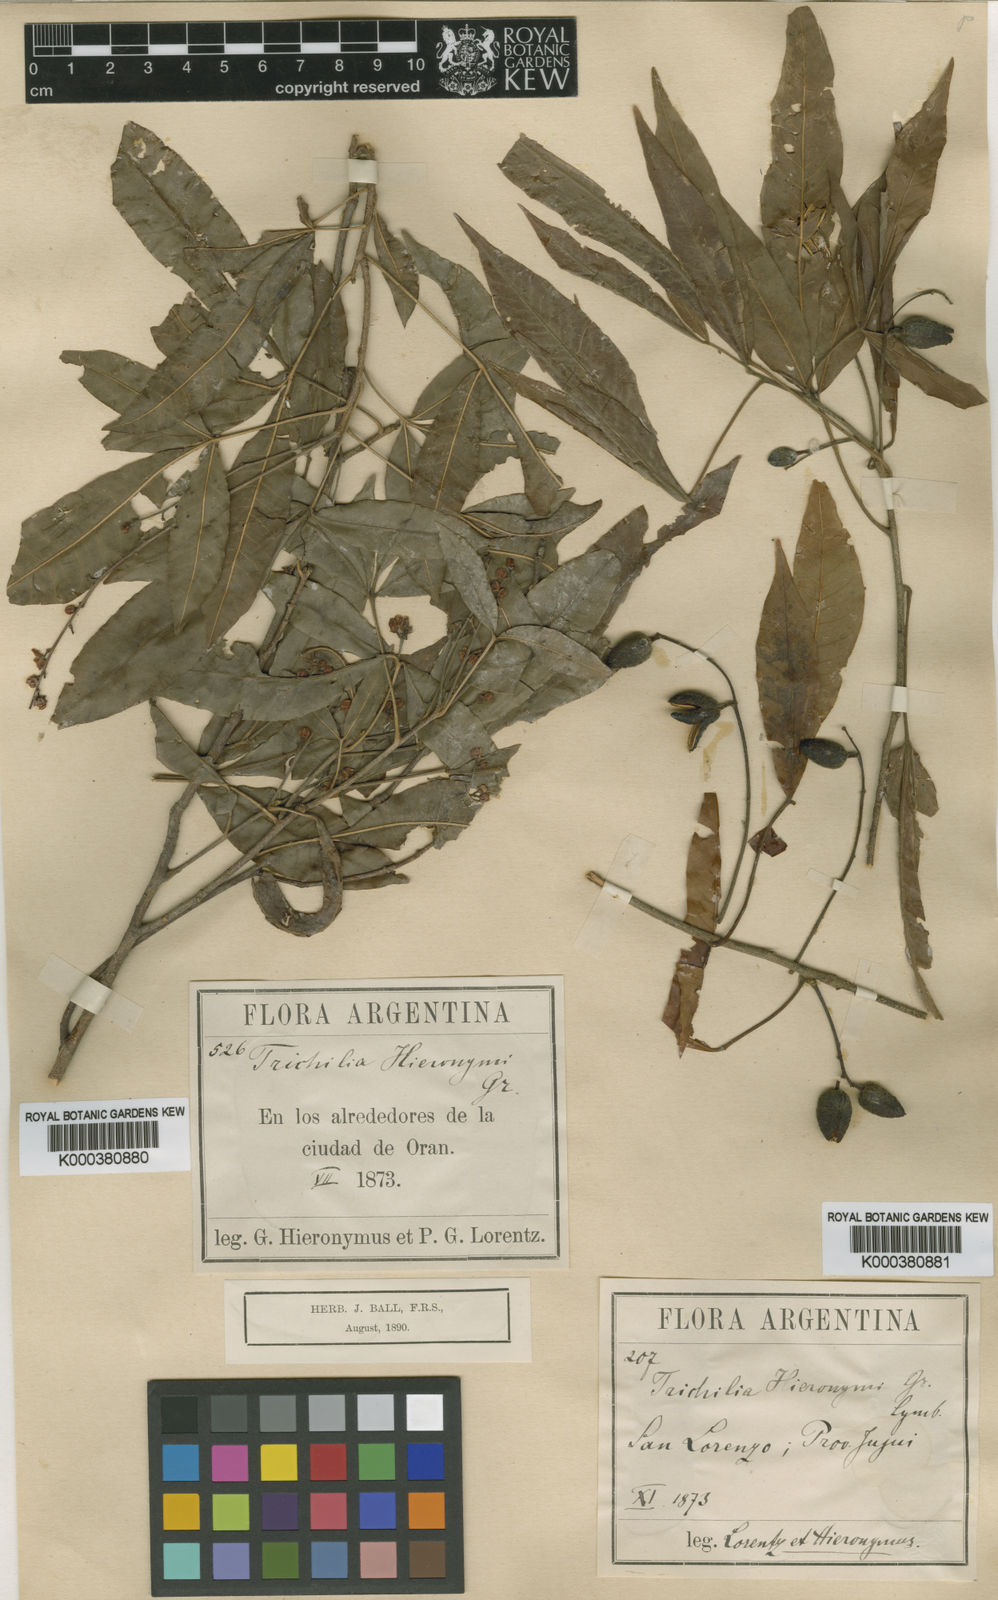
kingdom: Plantae
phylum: Tracheophyta
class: Magnoliopsida
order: Sapindales
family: Meliaceae
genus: Trichilia
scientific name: Trichilia claussenii
